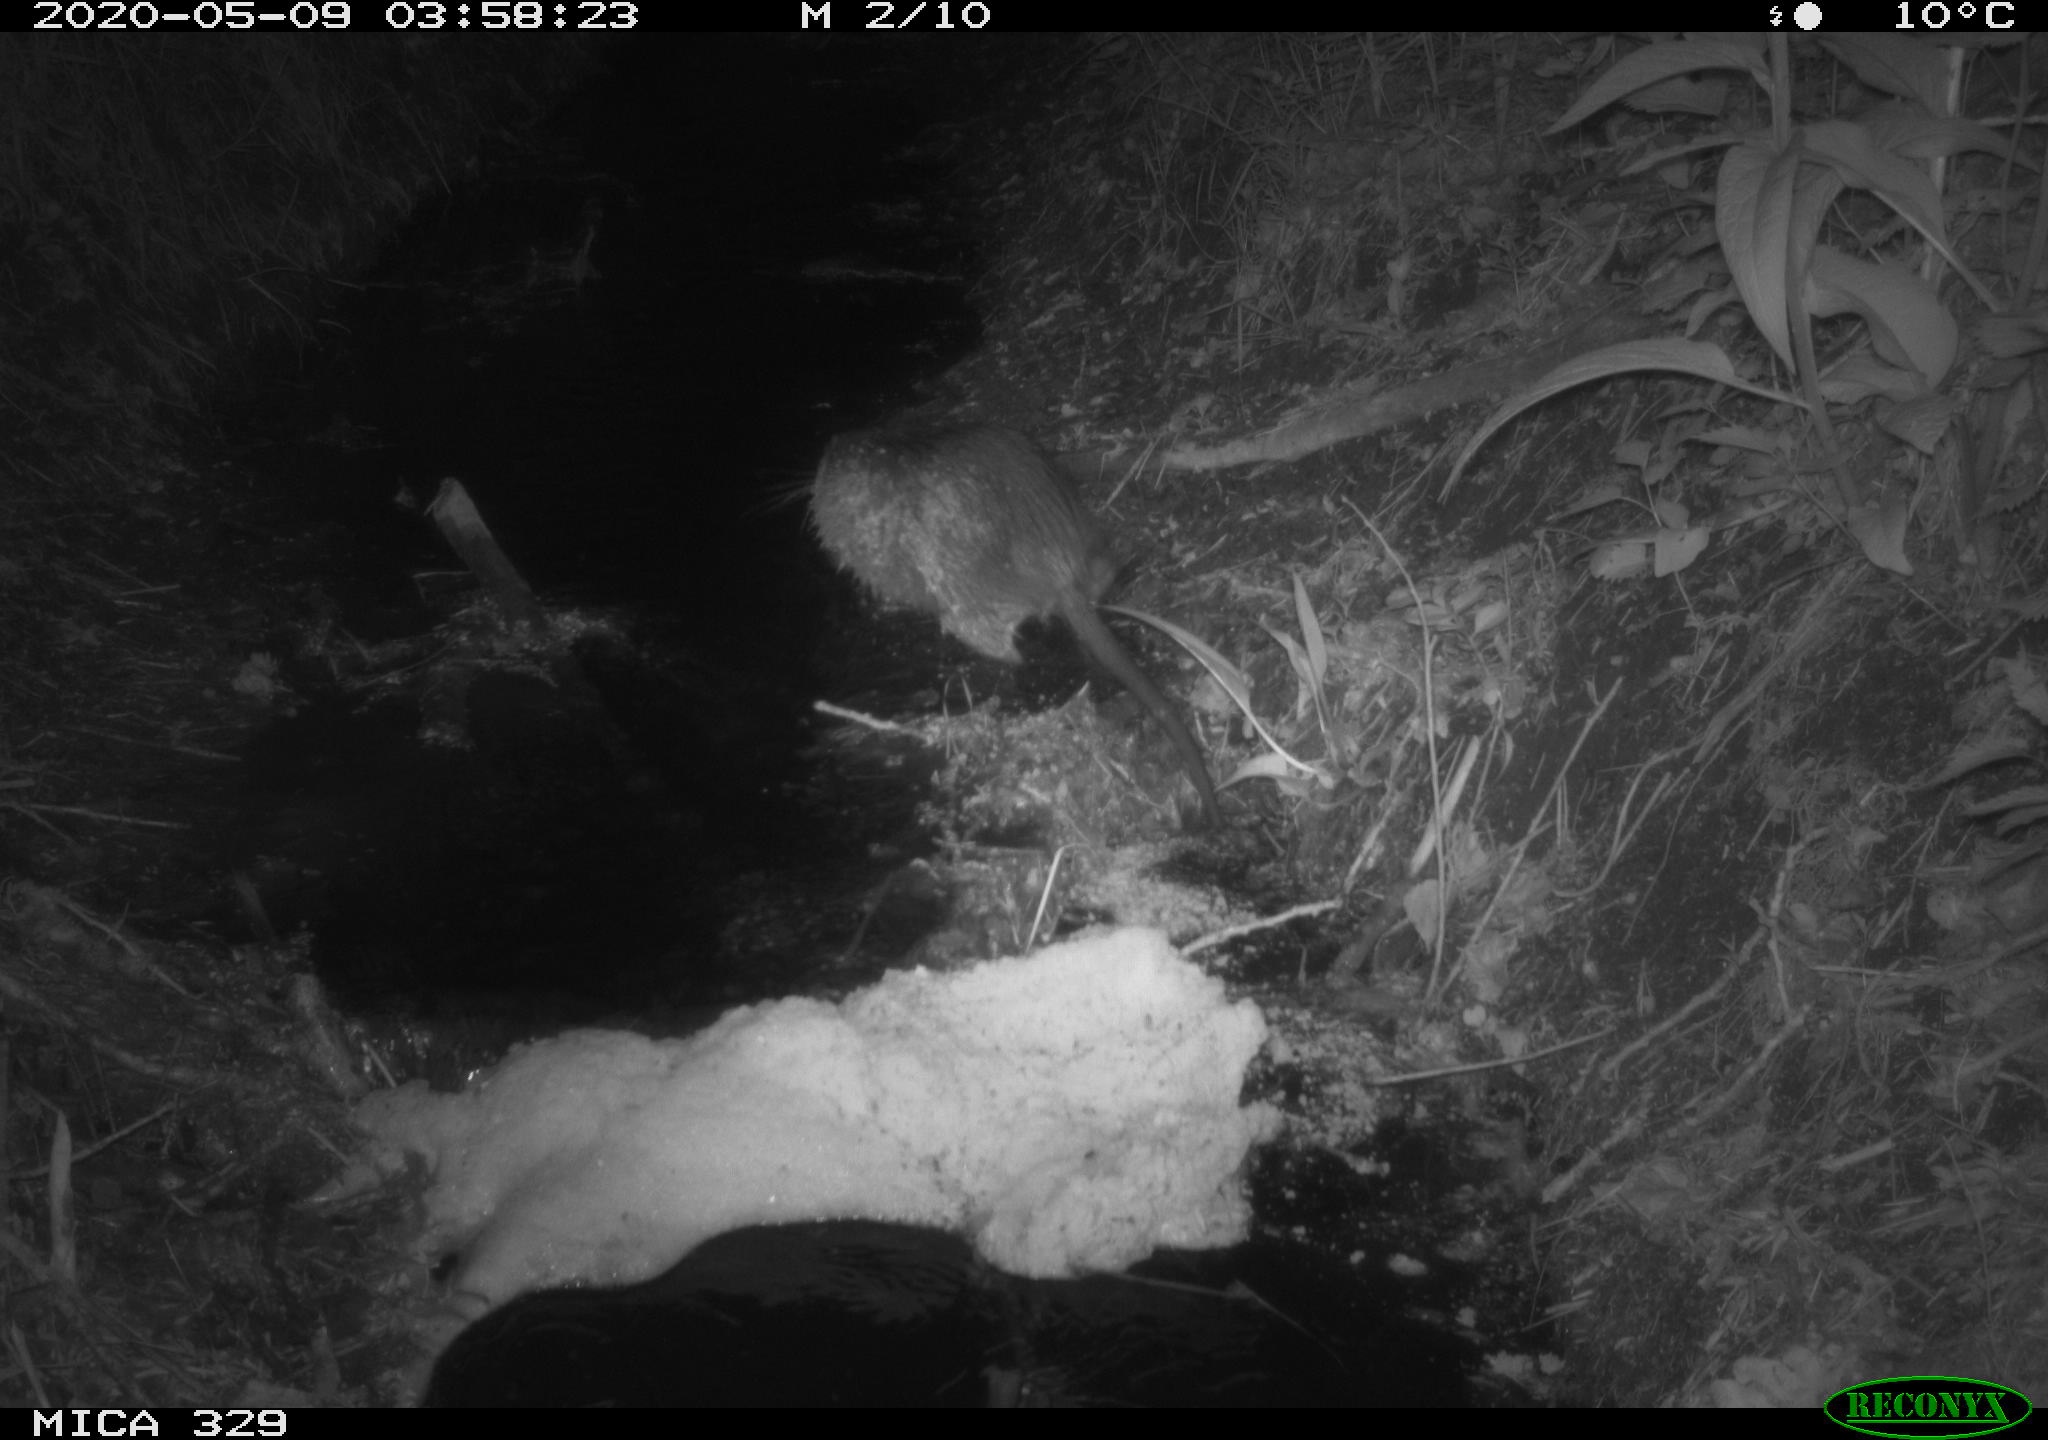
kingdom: Animalia
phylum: Chordata
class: Mammalia
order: Rodentia
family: Myocastoridae
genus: Myocastor
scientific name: Myocastor coypus
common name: Coypu
